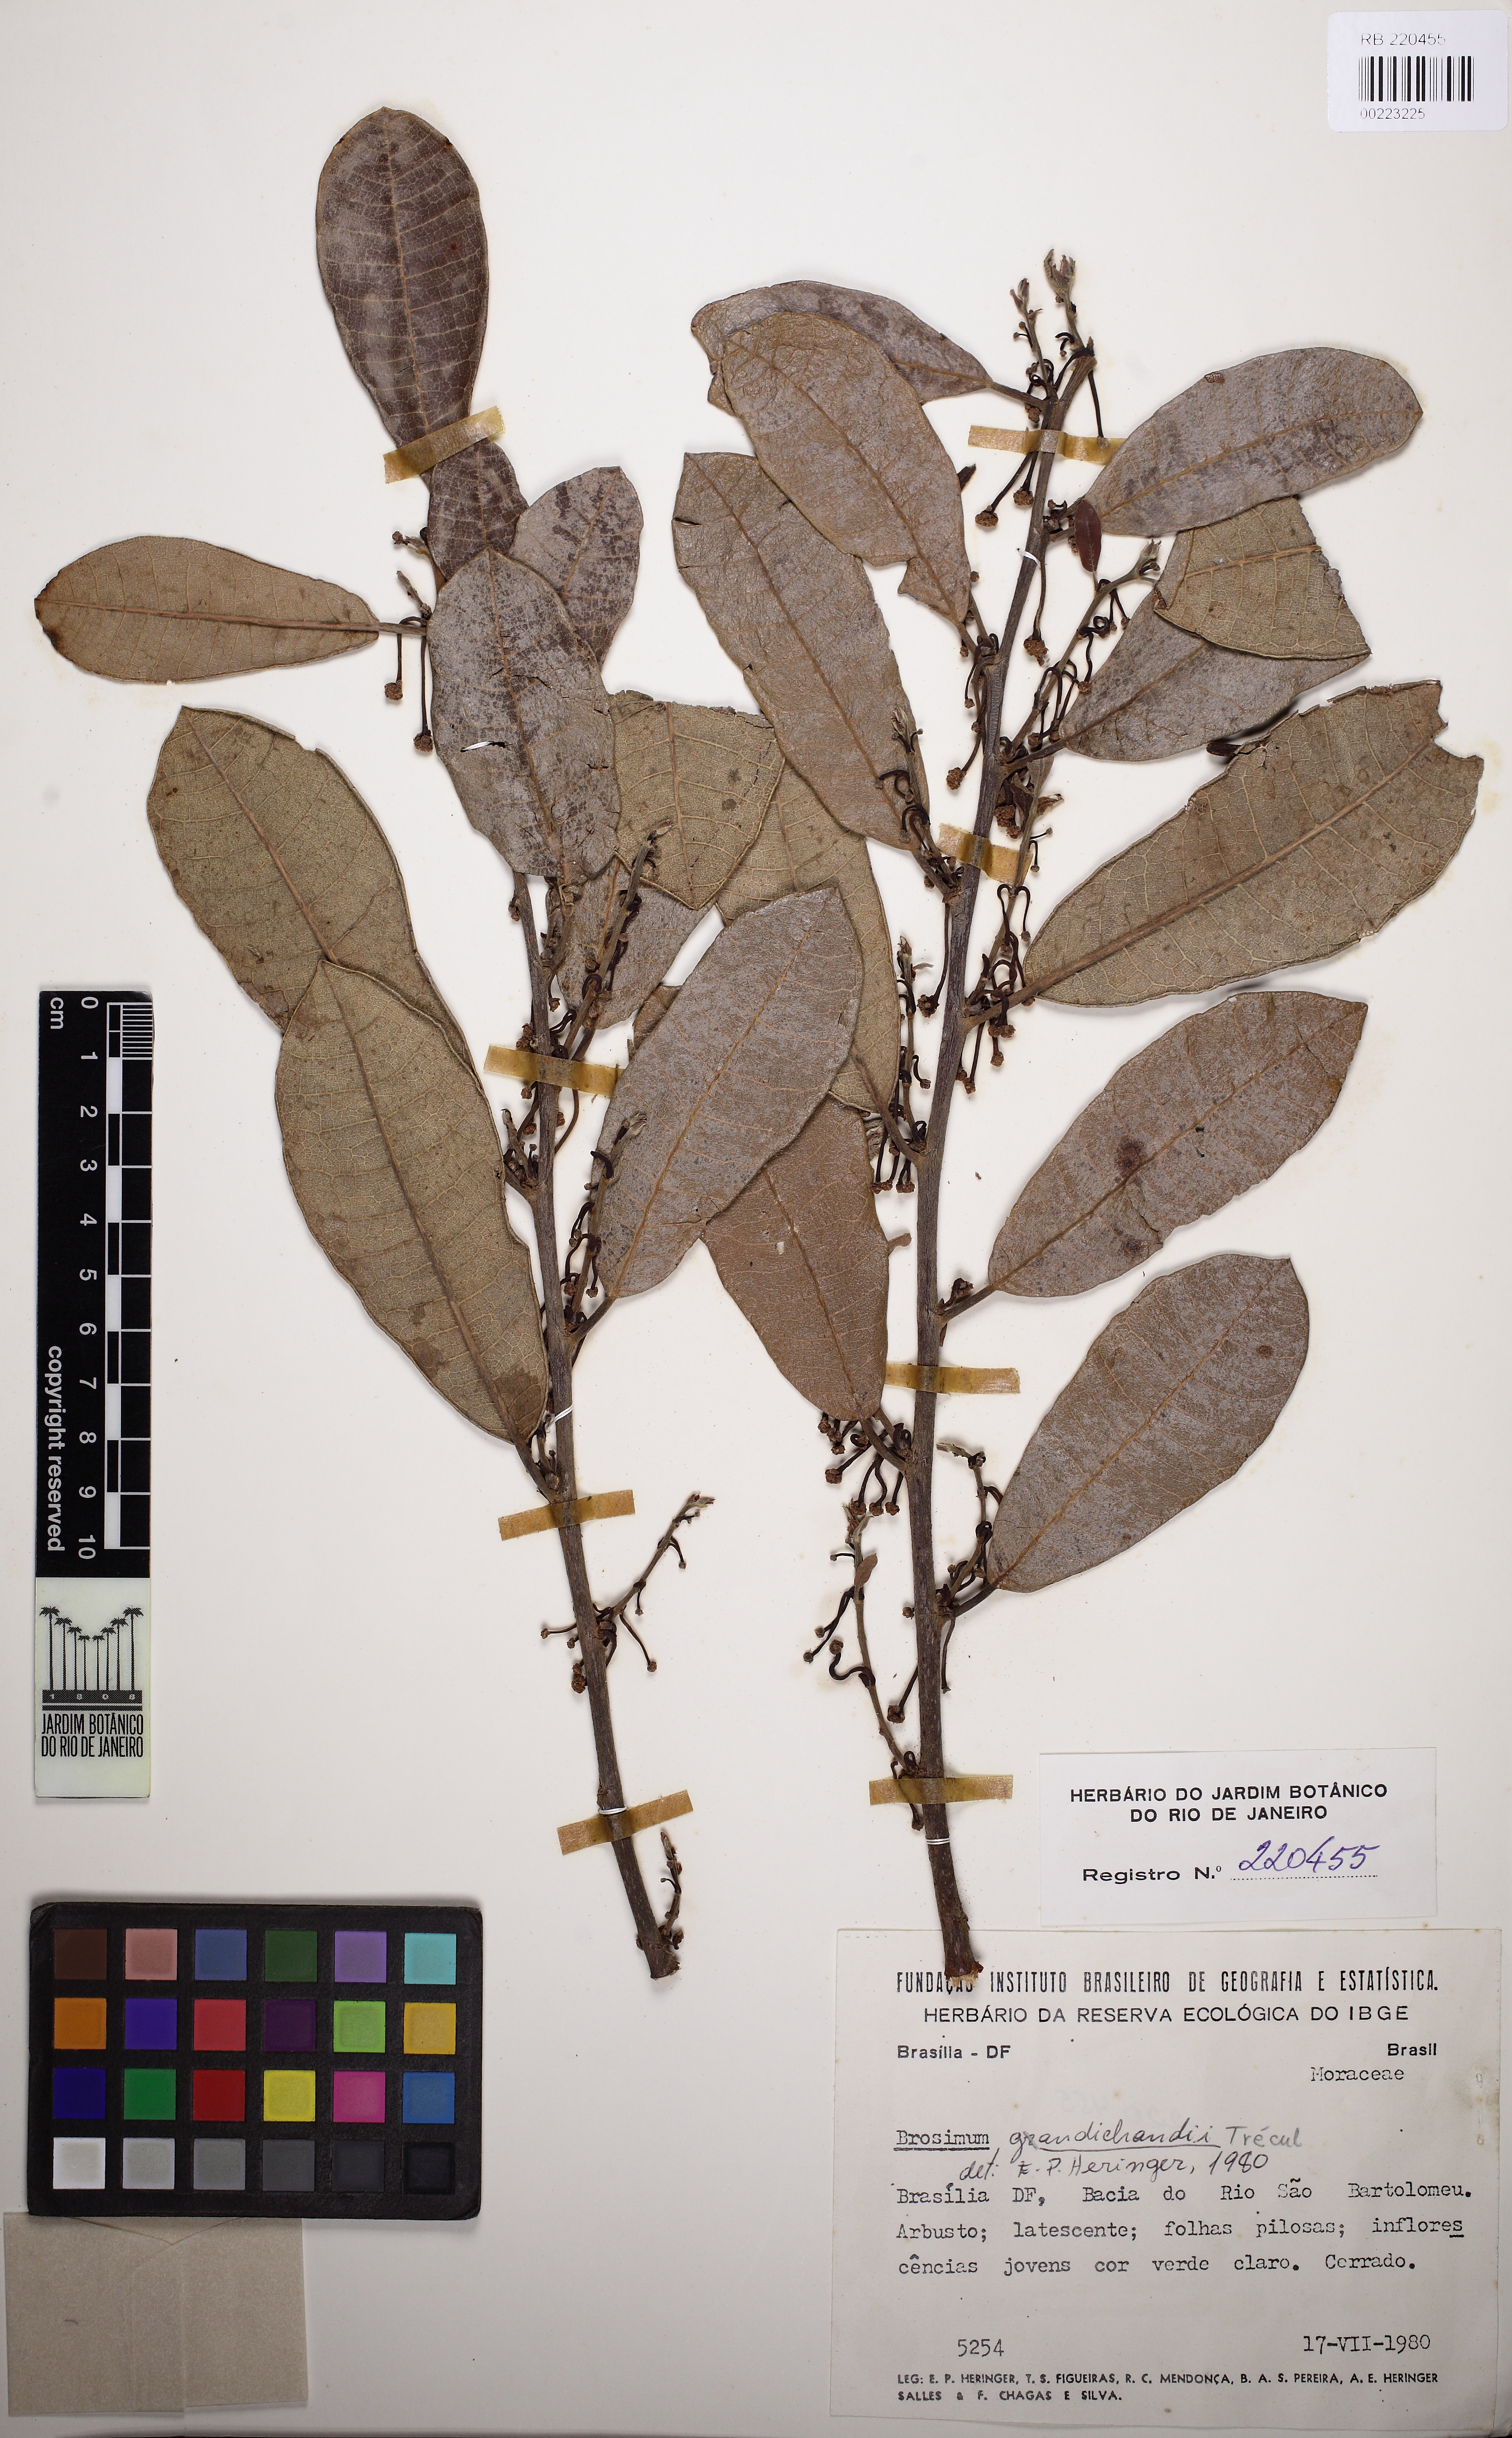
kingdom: Plantae
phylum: Tracheophyta
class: Magnoliopsida
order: Rosales
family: Moraceae
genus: Brosimum
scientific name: Brosimum gaudichaudii
